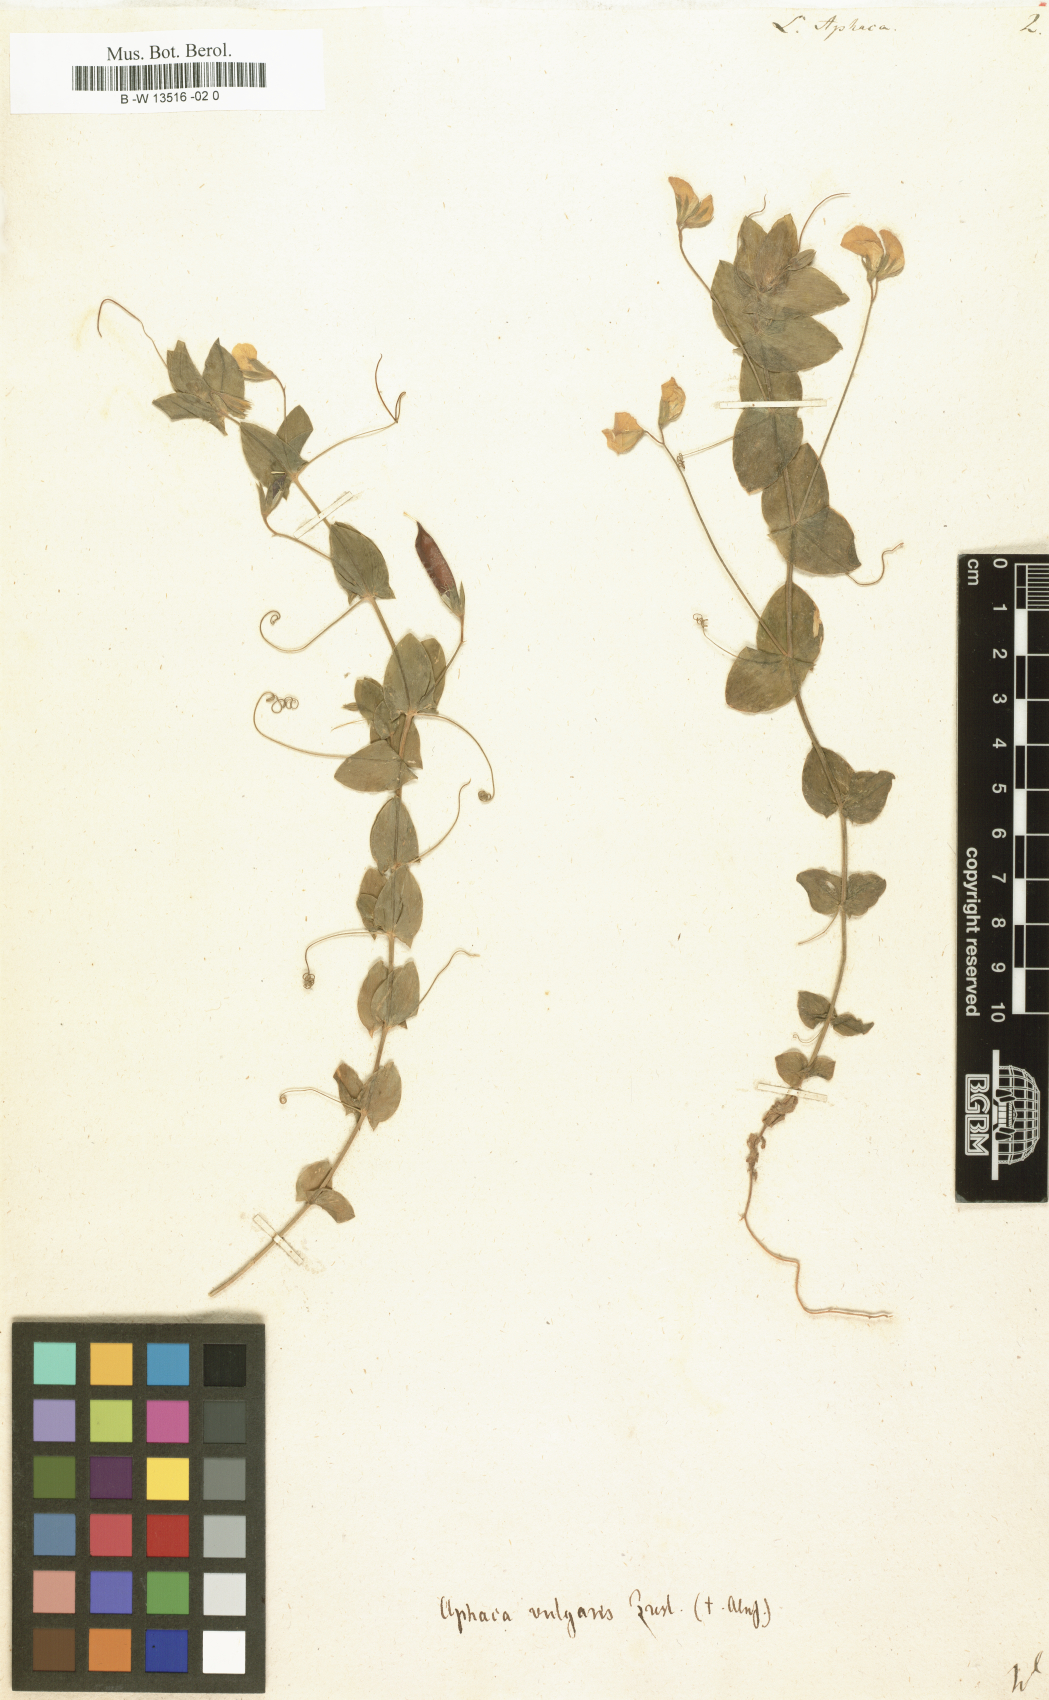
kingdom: Plantae
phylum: Tracheophyta
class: Magnoliopsida
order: Fabales
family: Fabaceae
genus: Lathyrus
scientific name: Lathyrus aphaca
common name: Yellow vetchling
